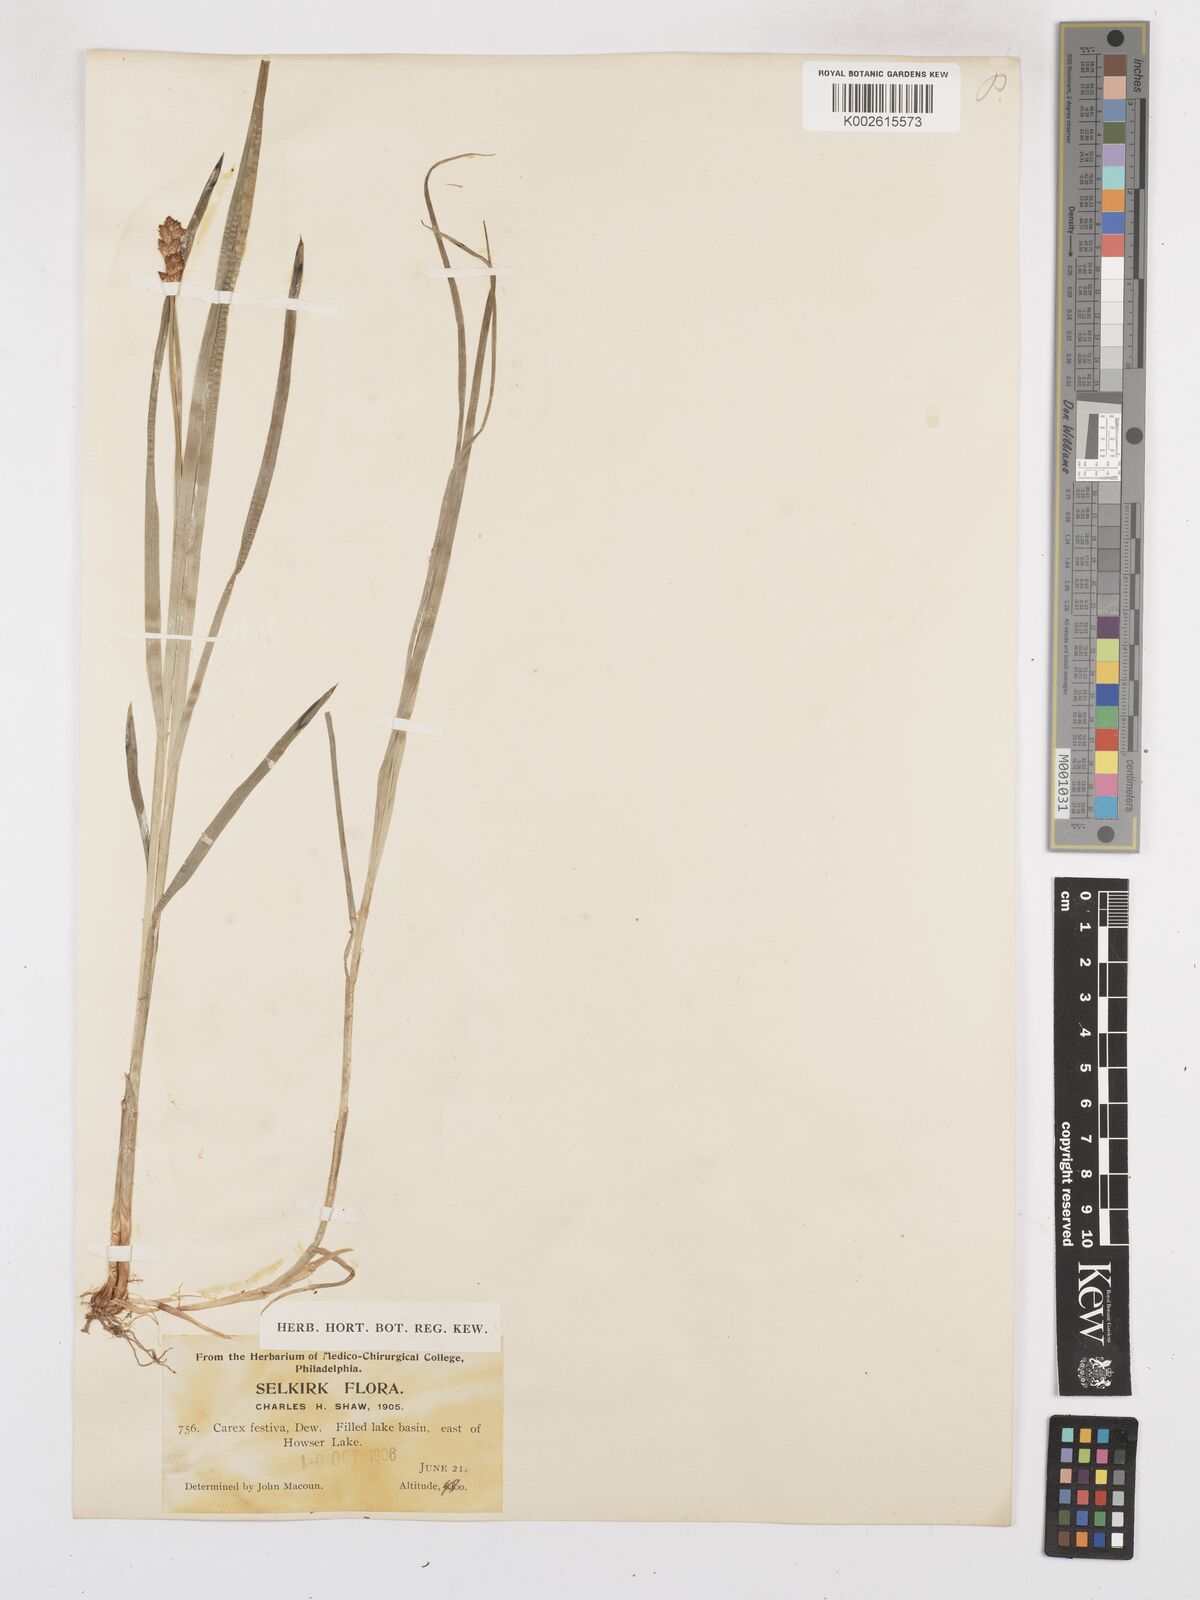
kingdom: Plantae
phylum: Tracheophyta
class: Liliopsida
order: Poales
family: Cyperaceae
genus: Carex
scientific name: Carex macloviana
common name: Falkland island sedge
